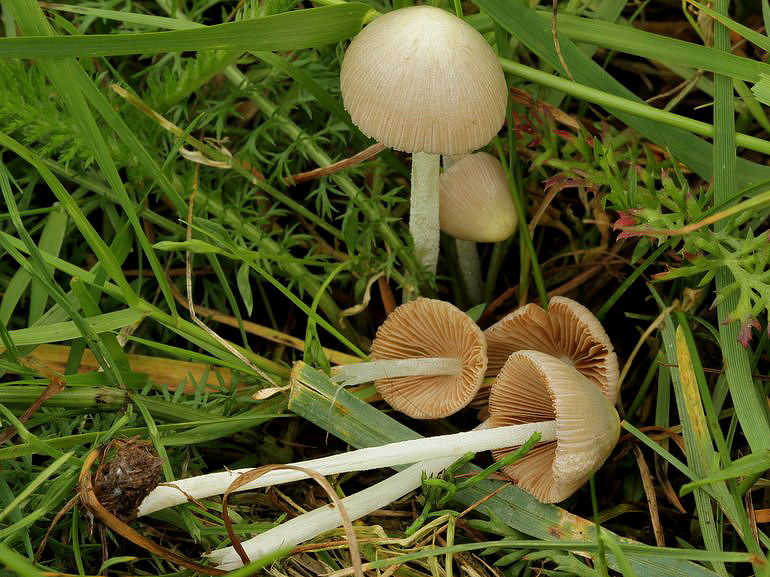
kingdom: Fungi
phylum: Basidiomycota
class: Agaricomycetes
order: Agaricales
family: Bolbitiaceae
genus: Bolbitius
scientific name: Bolbitius titubans
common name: almindelig gulhat
